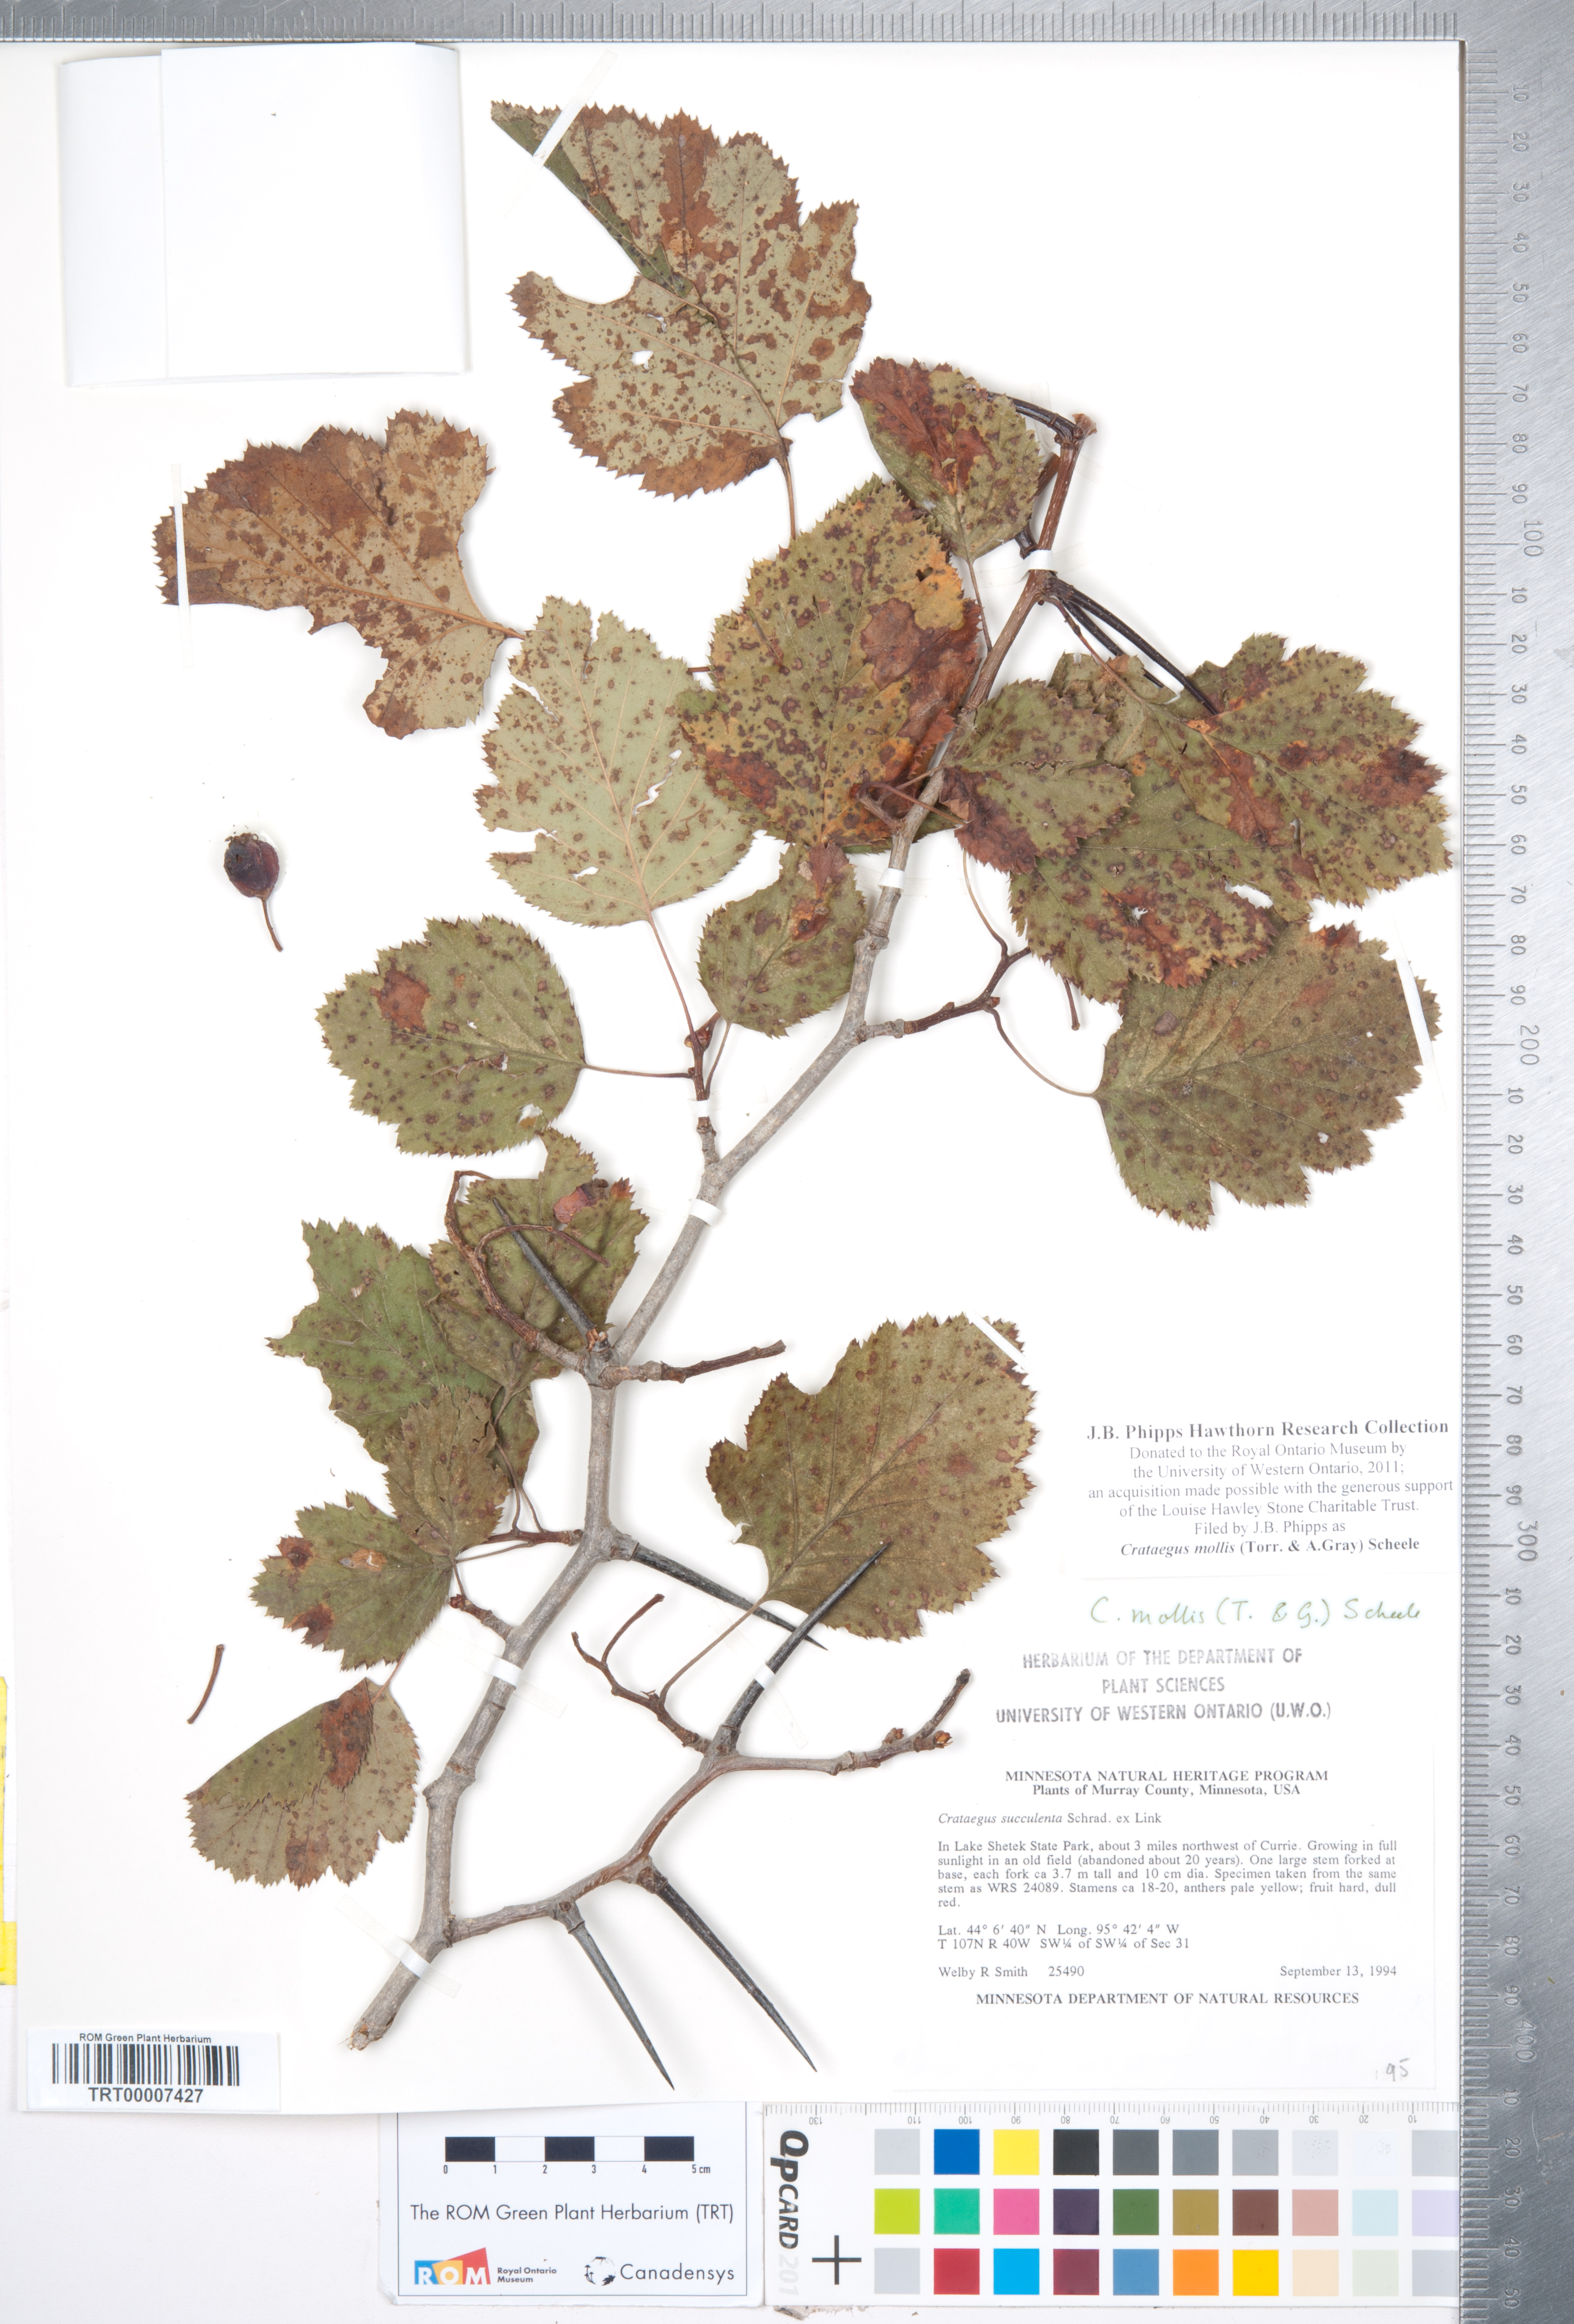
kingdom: Plantae
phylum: Tracheophyta
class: Magnoliopsida
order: Rosales
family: Rosaceae
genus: Crataegus
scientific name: Crataegus mollis
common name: Downy hawthorn
